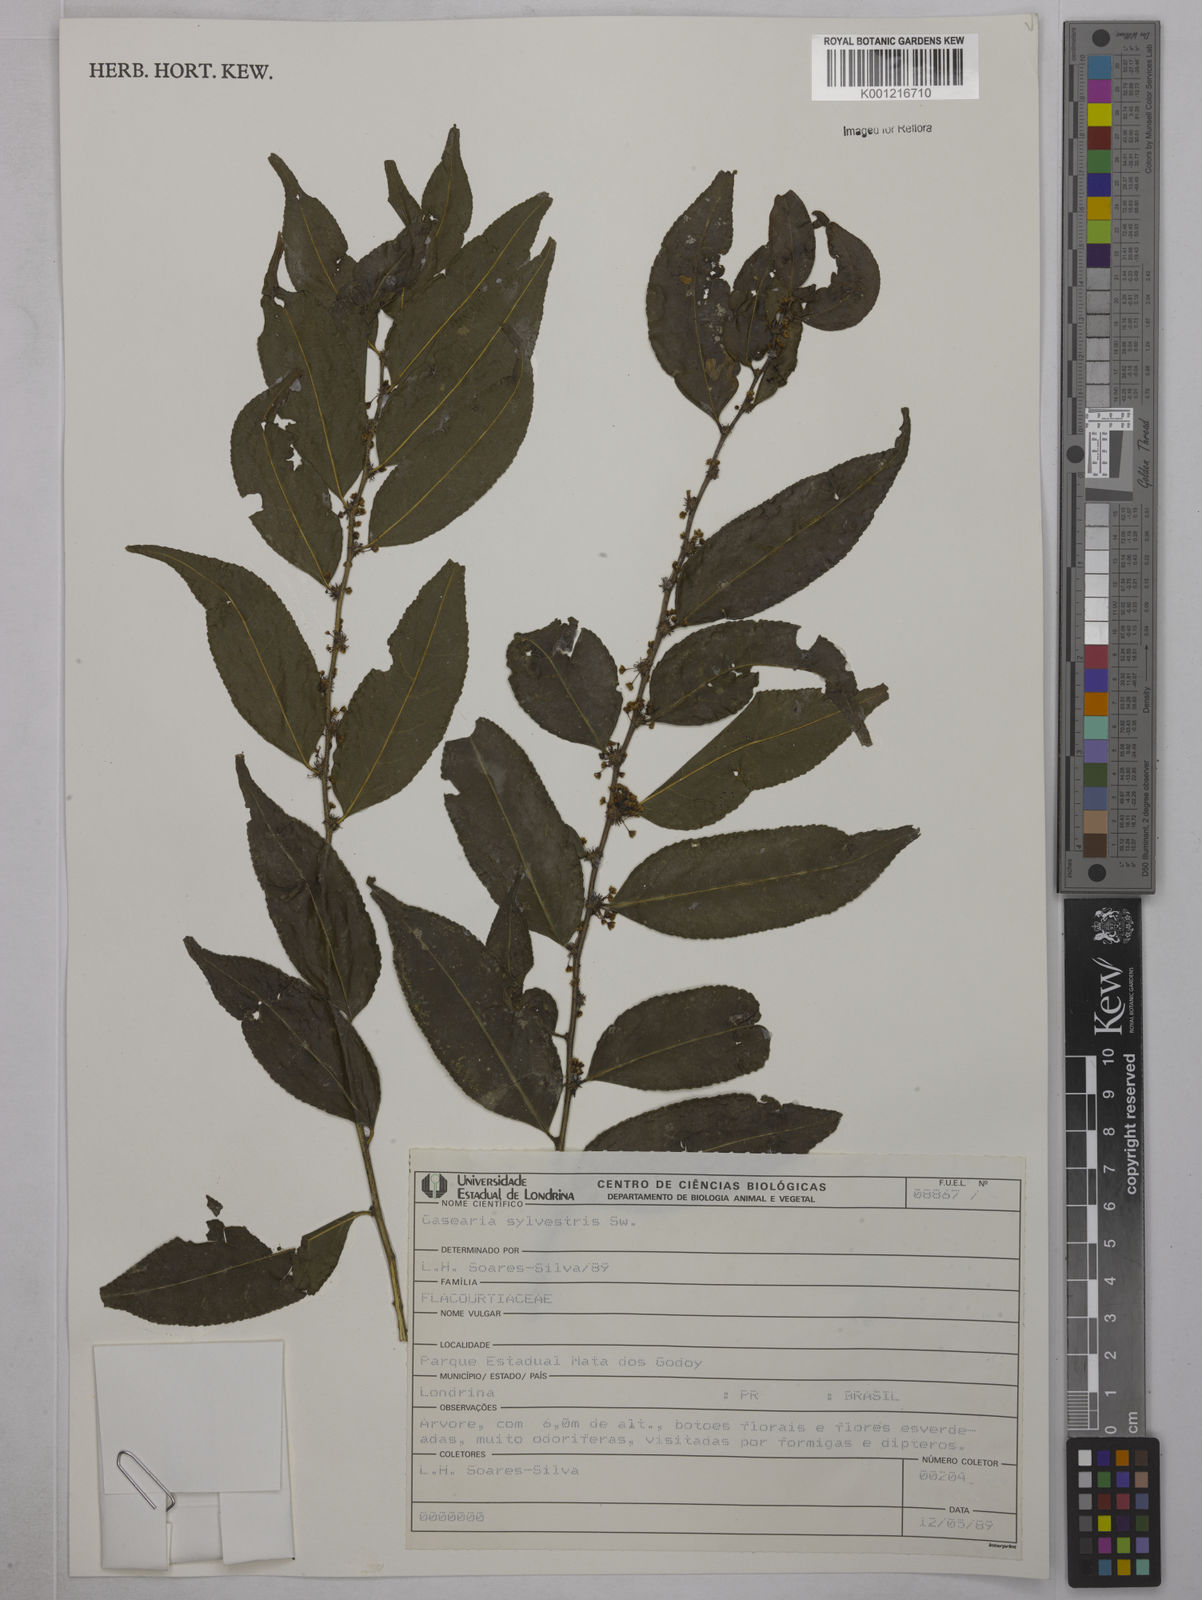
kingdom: Plantae
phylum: Tracheophyta
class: Magnoliopsida
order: Malpighiales
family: Salicaceae
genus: Casearia
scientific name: Casearia sylvestris
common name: Wild sage
